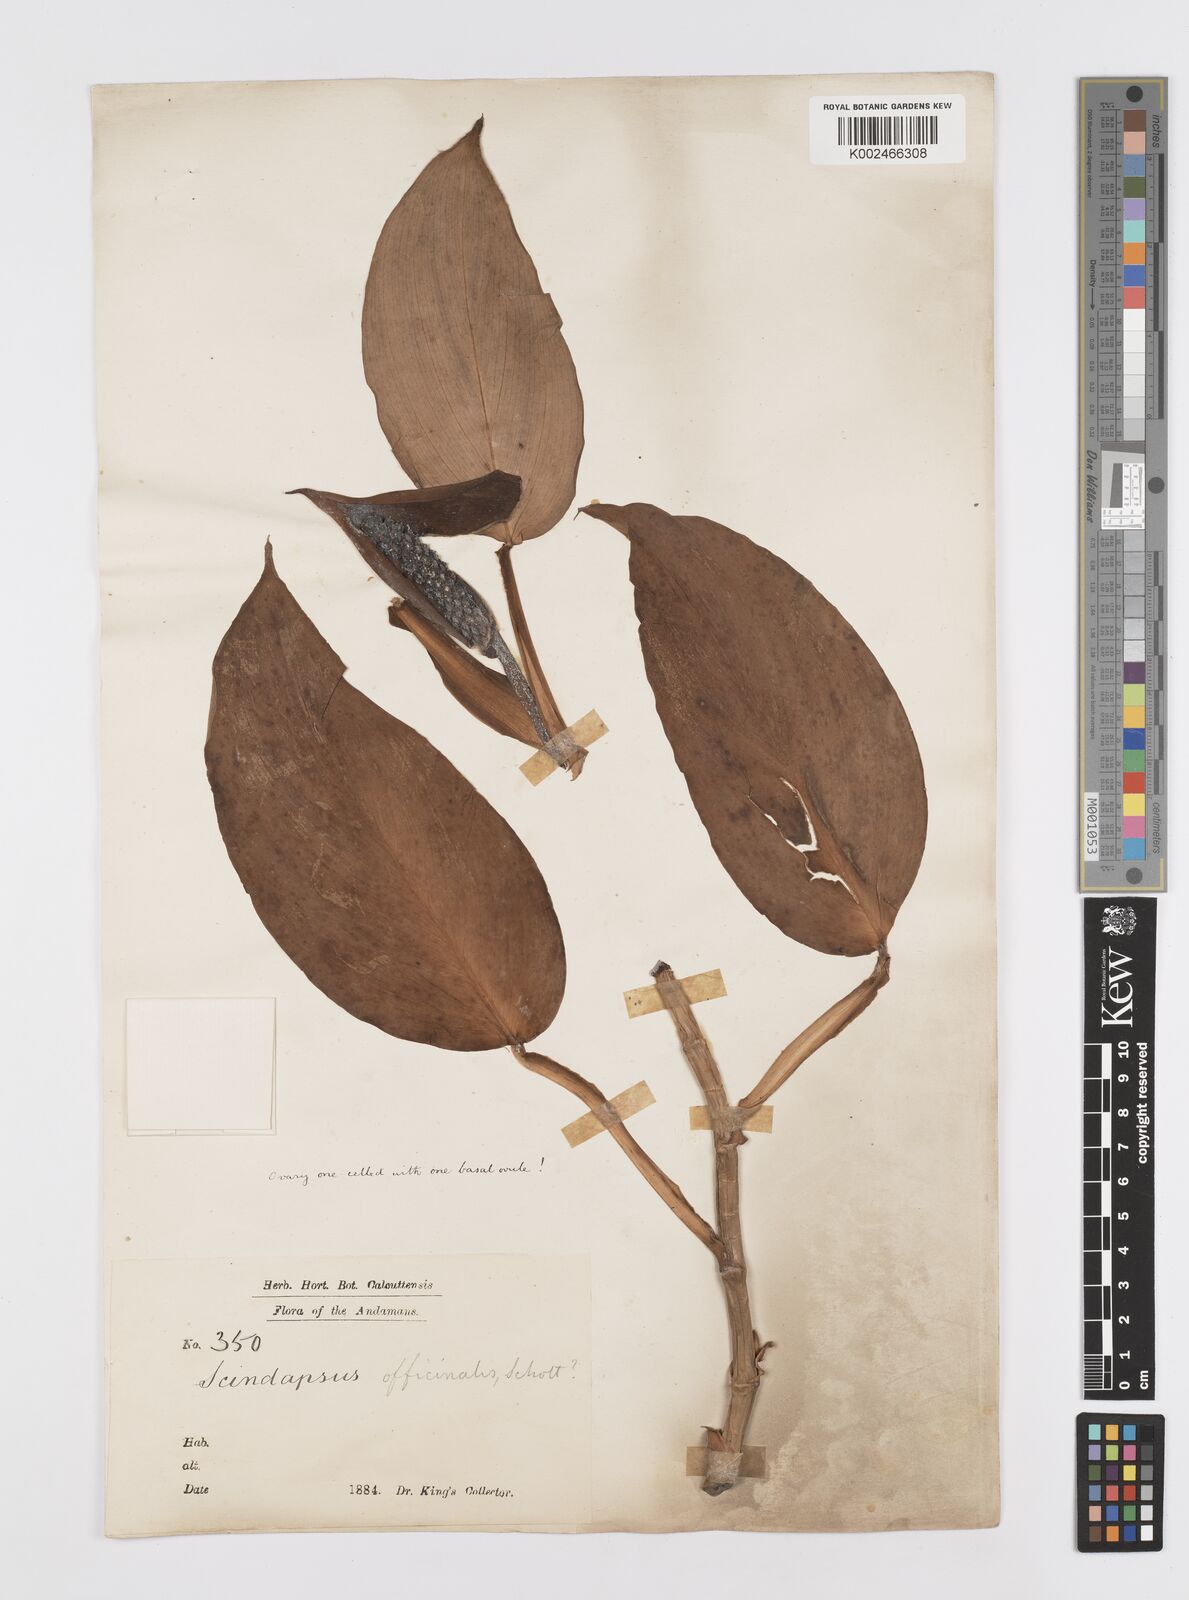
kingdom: Plantae
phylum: Tracheophyta
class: Liliopsida
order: Alismatales
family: Araceae
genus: Scindapsus
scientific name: Scindapsus officinalis
